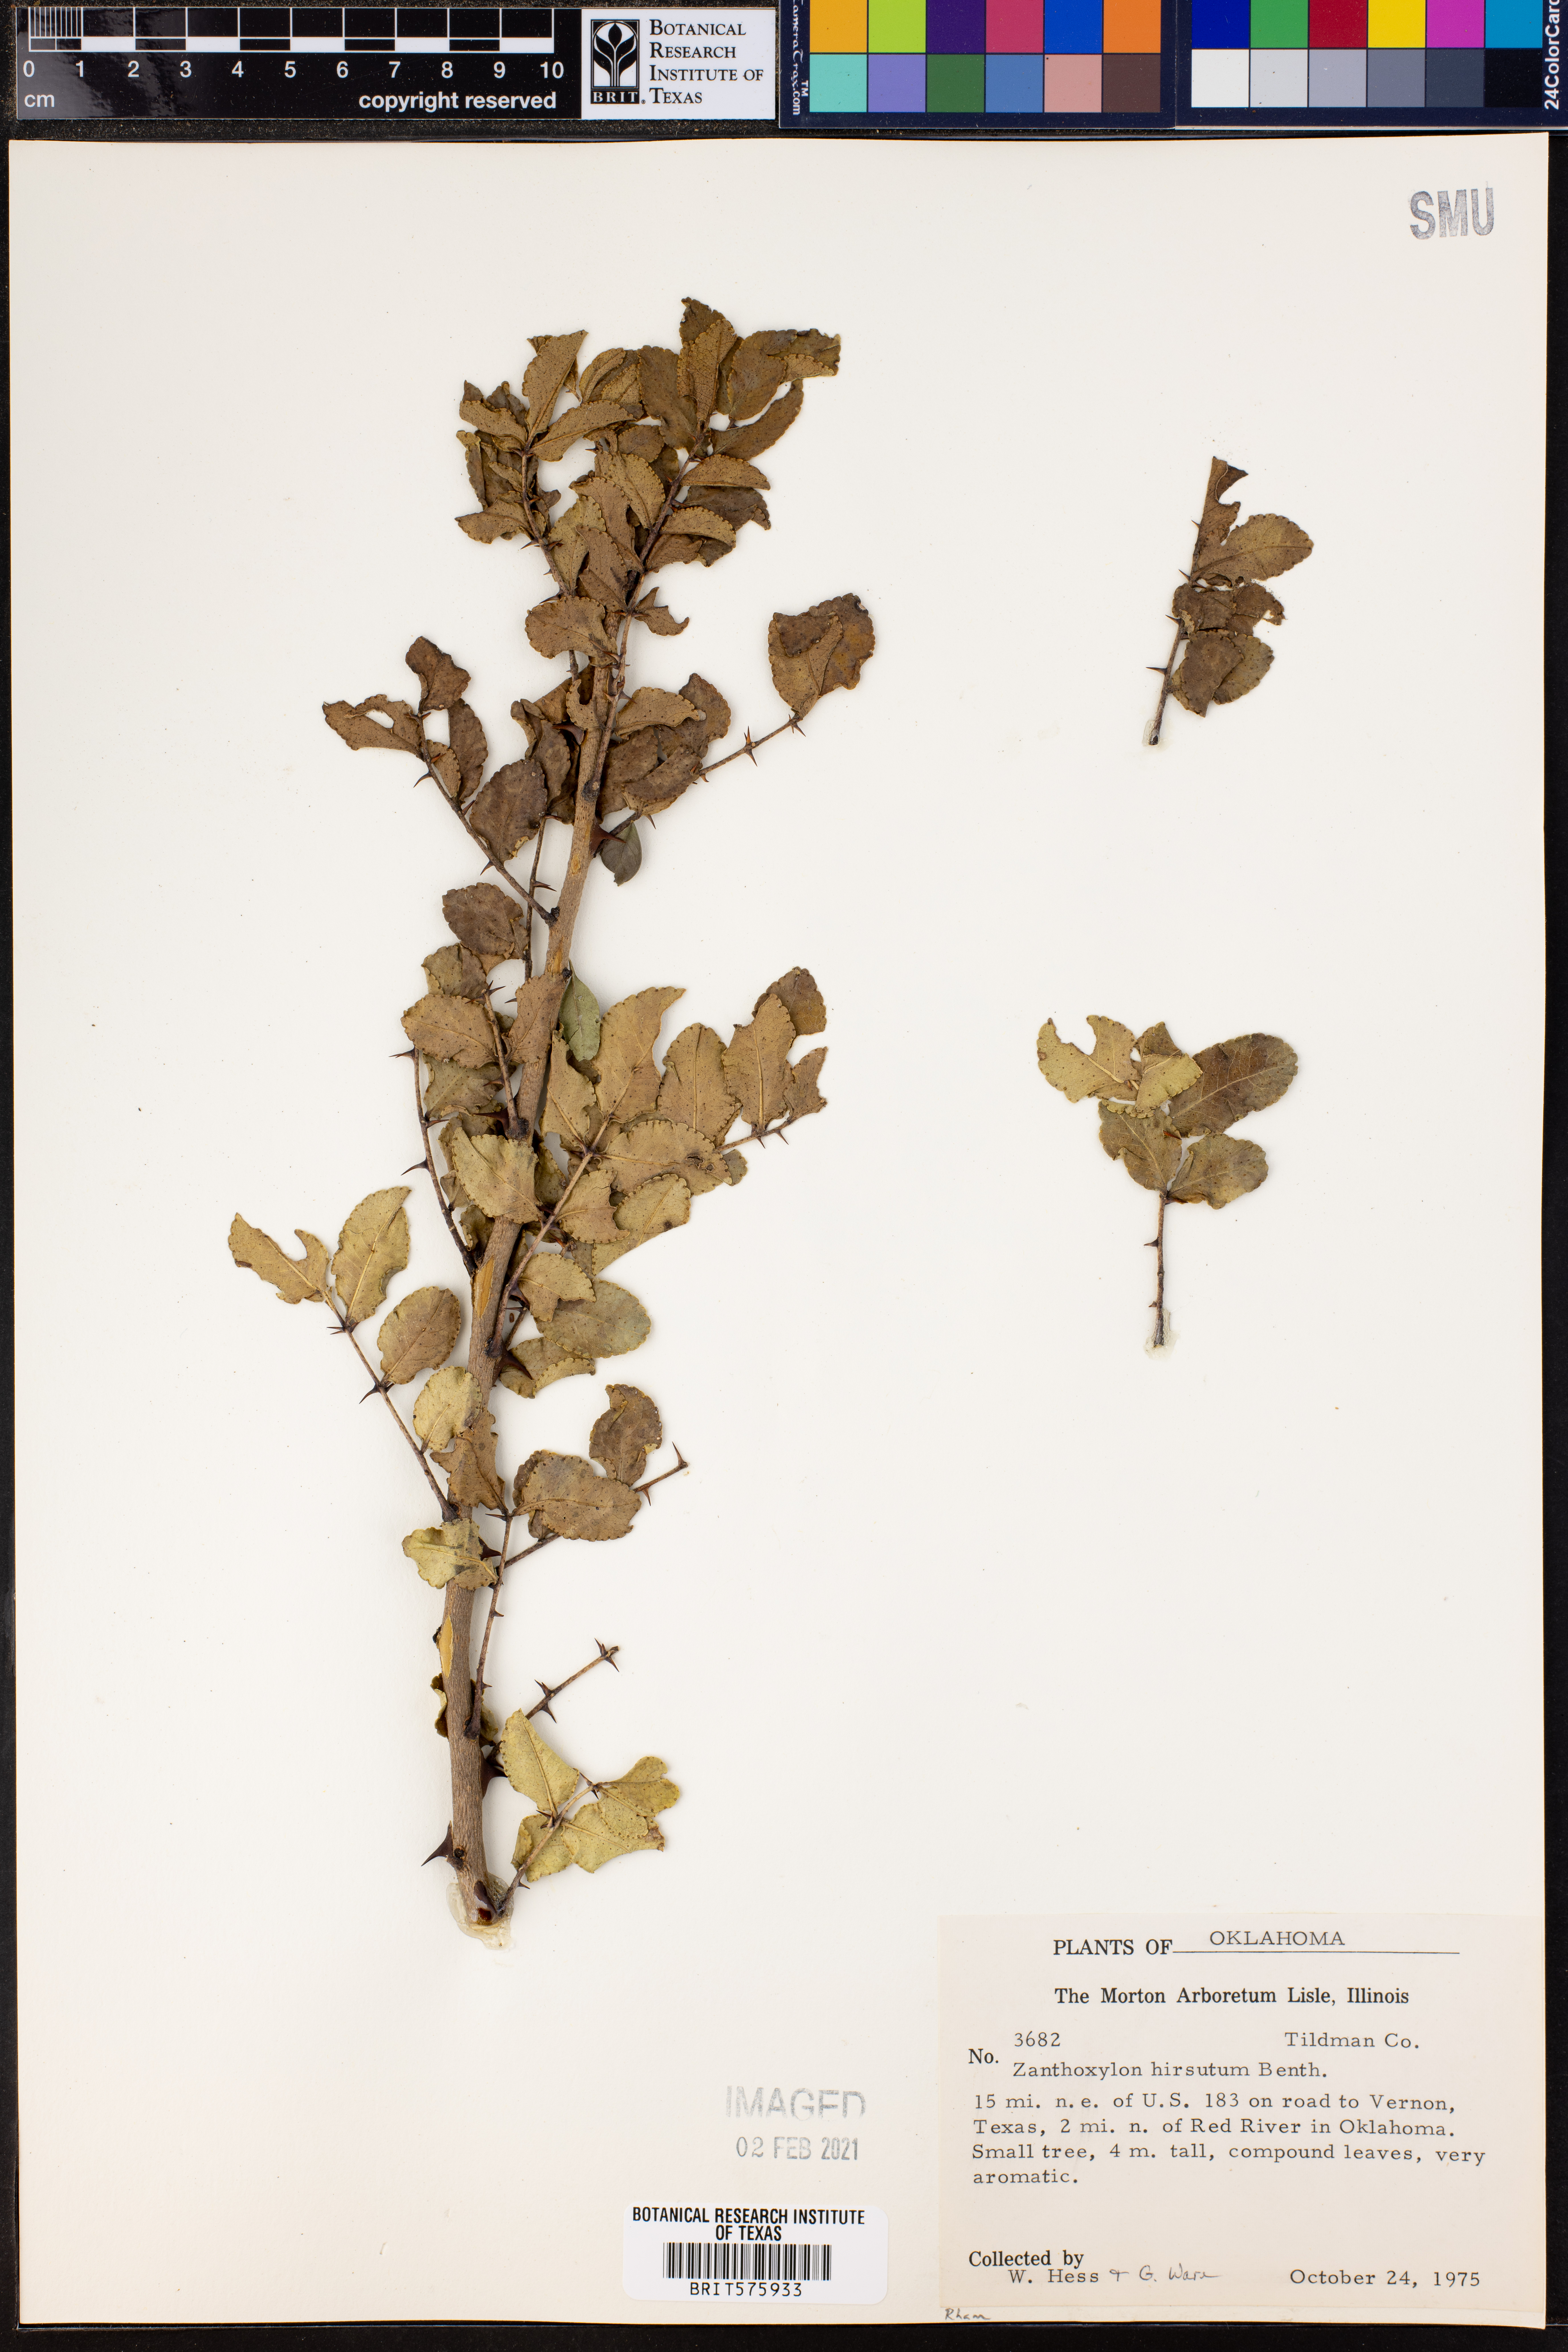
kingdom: Plantae
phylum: Tracheophyta
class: Magnoliopsida
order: Sapindales
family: Rutaceae
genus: Zanthoxylum
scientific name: Zanthoxylum clava-herculis
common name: Hercules'-club
